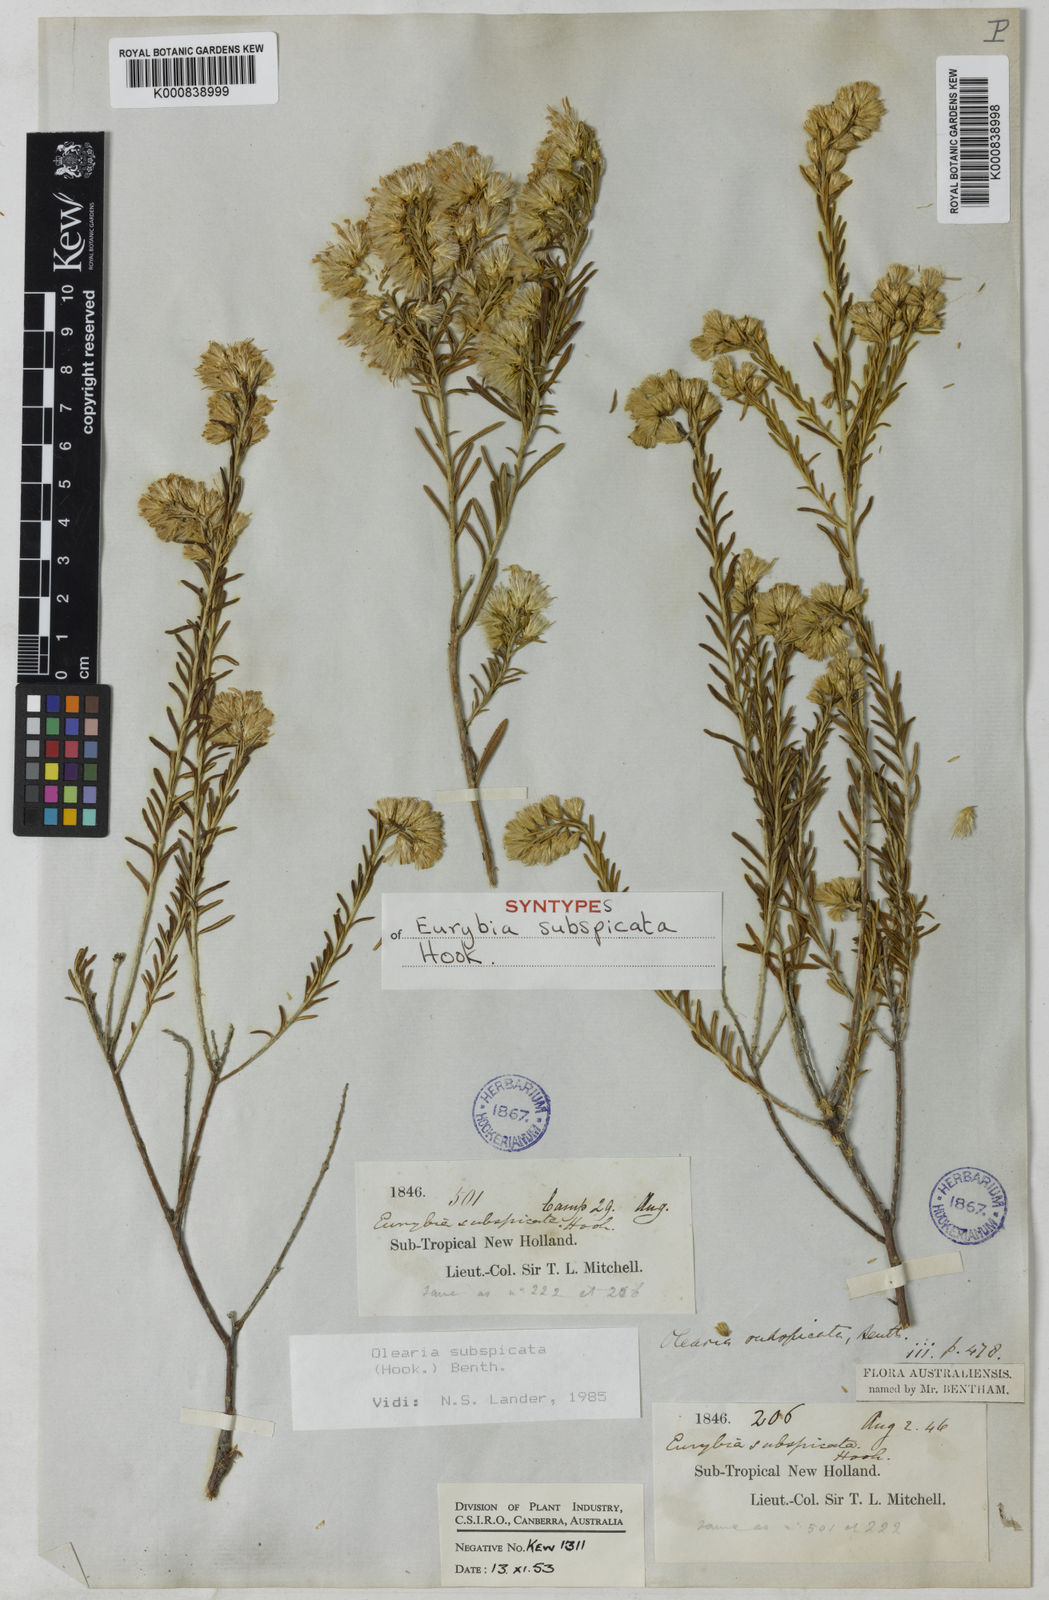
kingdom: Plantae
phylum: Tracheophyta
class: Magnoliopsida
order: Asterales
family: Asteraceae
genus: Olearia
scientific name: Olearia subspicata
